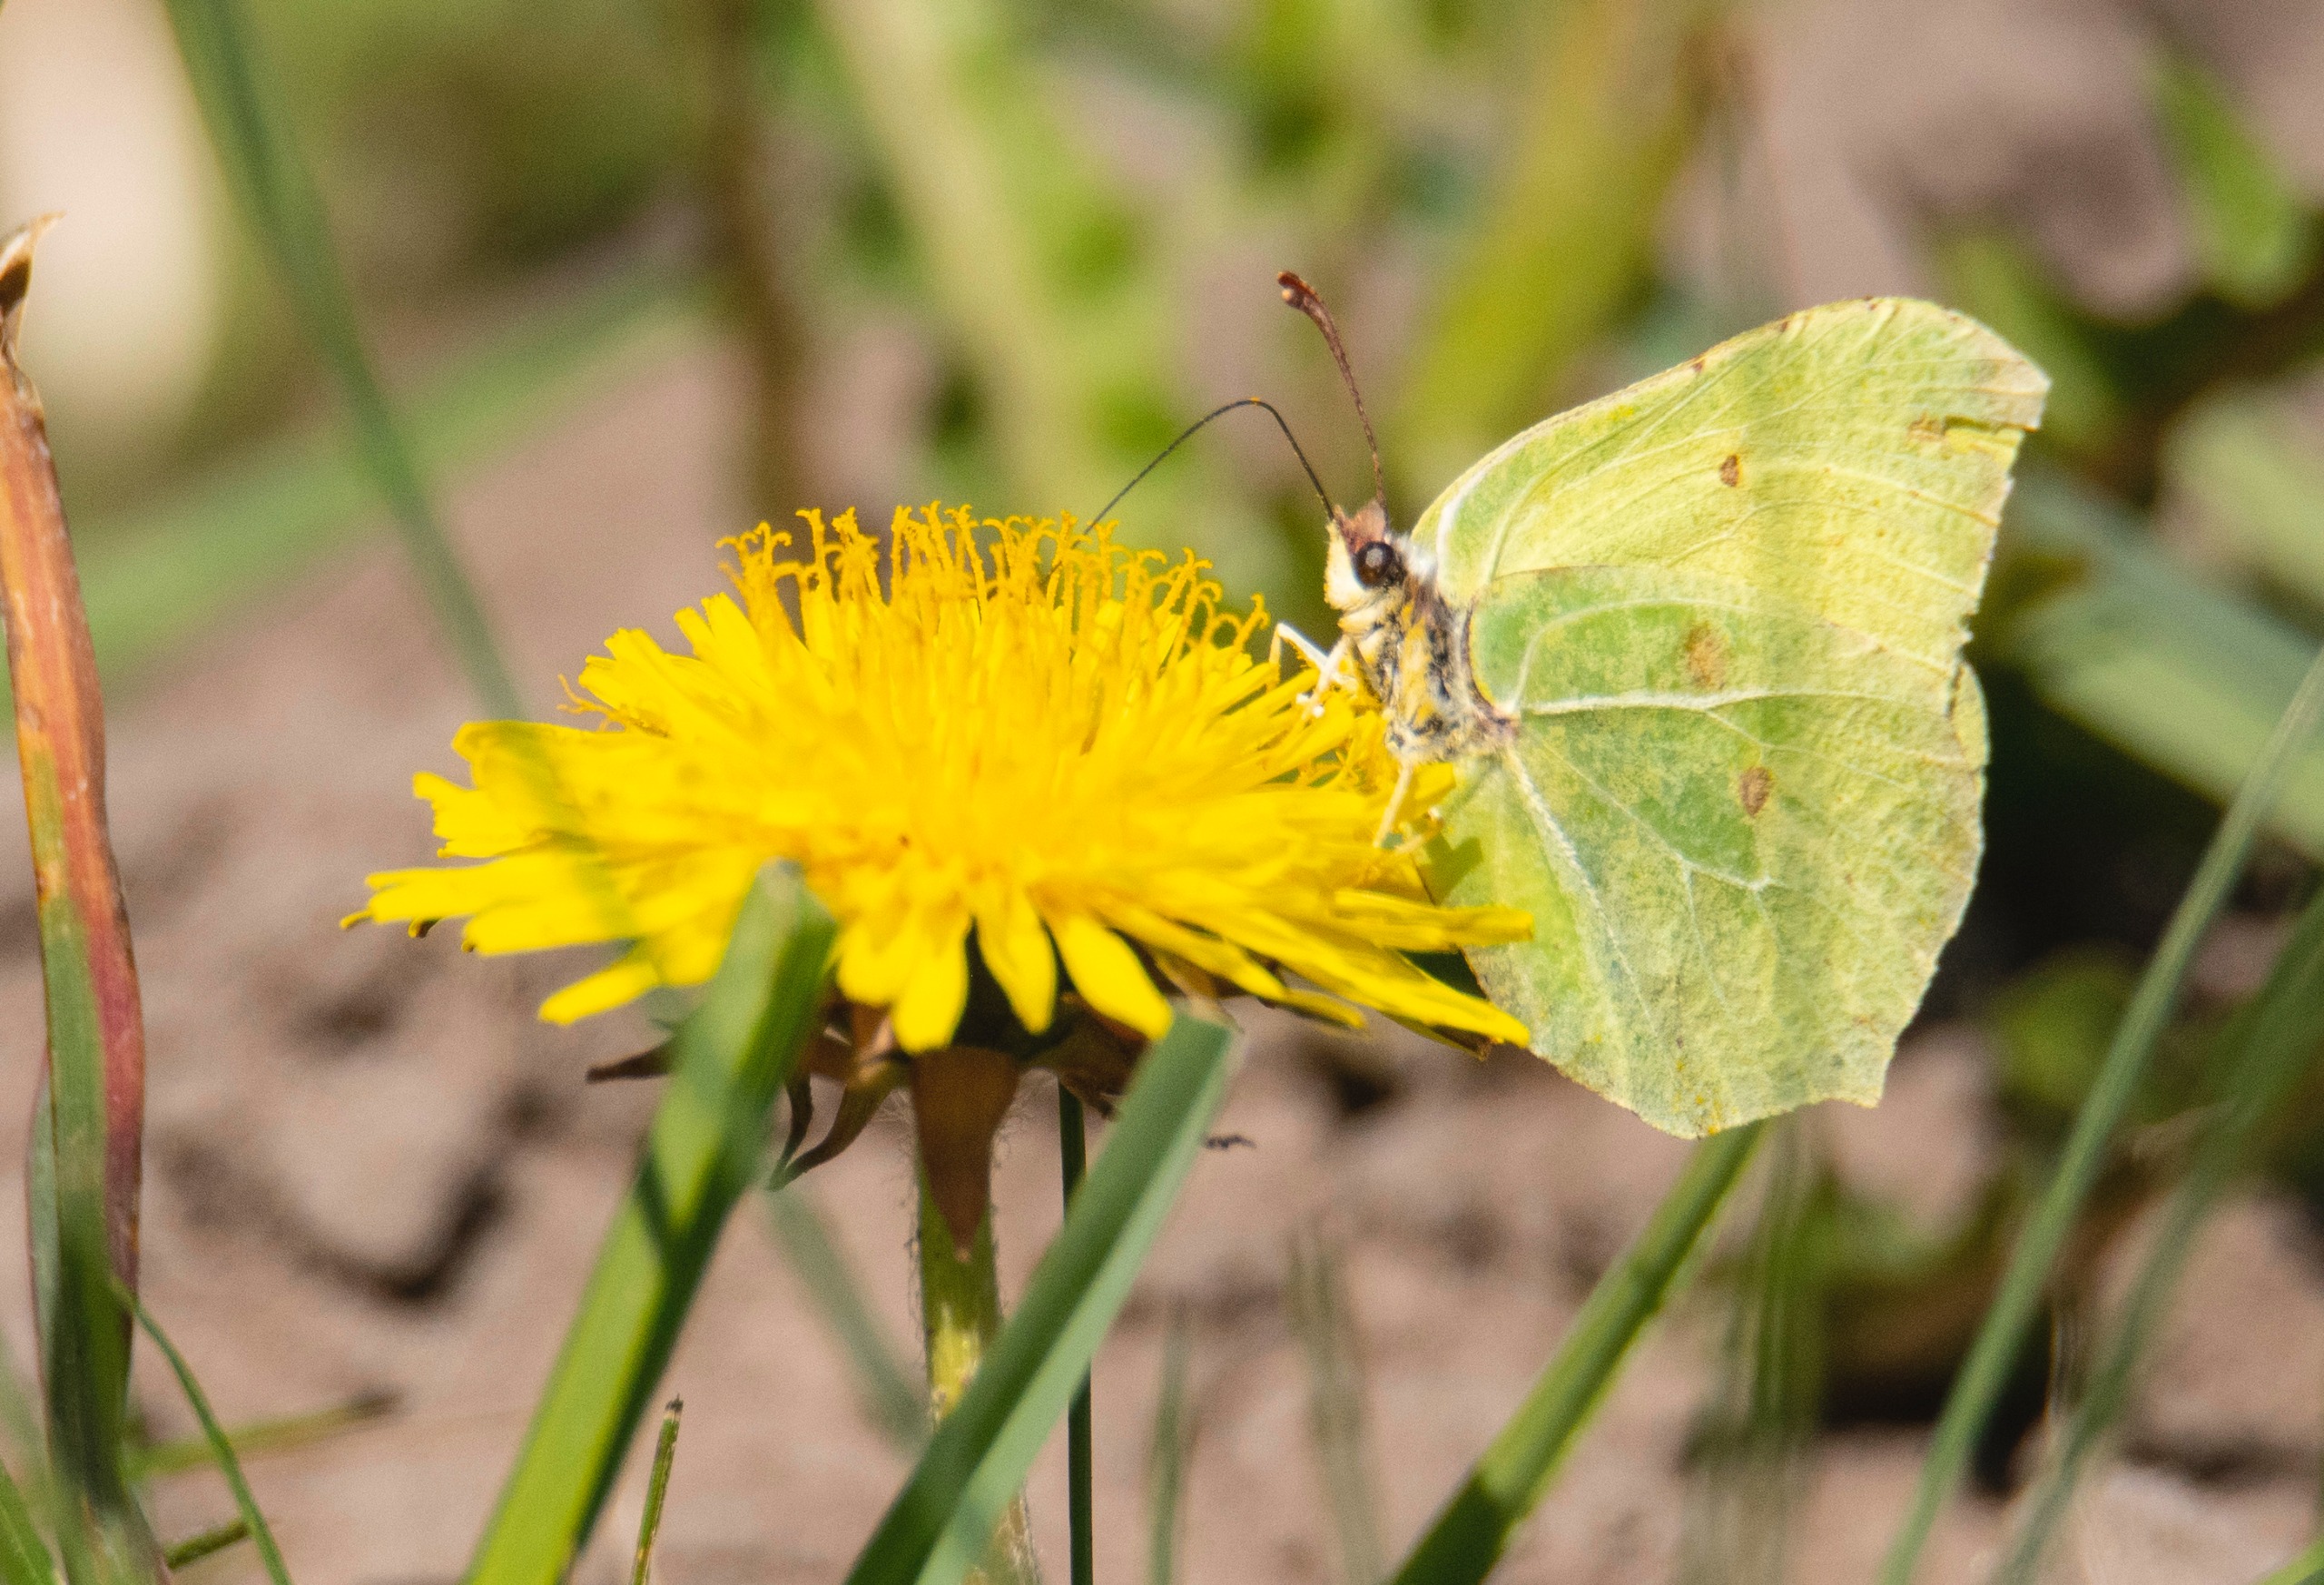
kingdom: Animalia
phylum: Arthropoda
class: Insecta
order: Lepidoptera
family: Pieridae
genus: Gonepteryx
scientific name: Gonepteryx rhamni
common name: Citronsommerfugl
